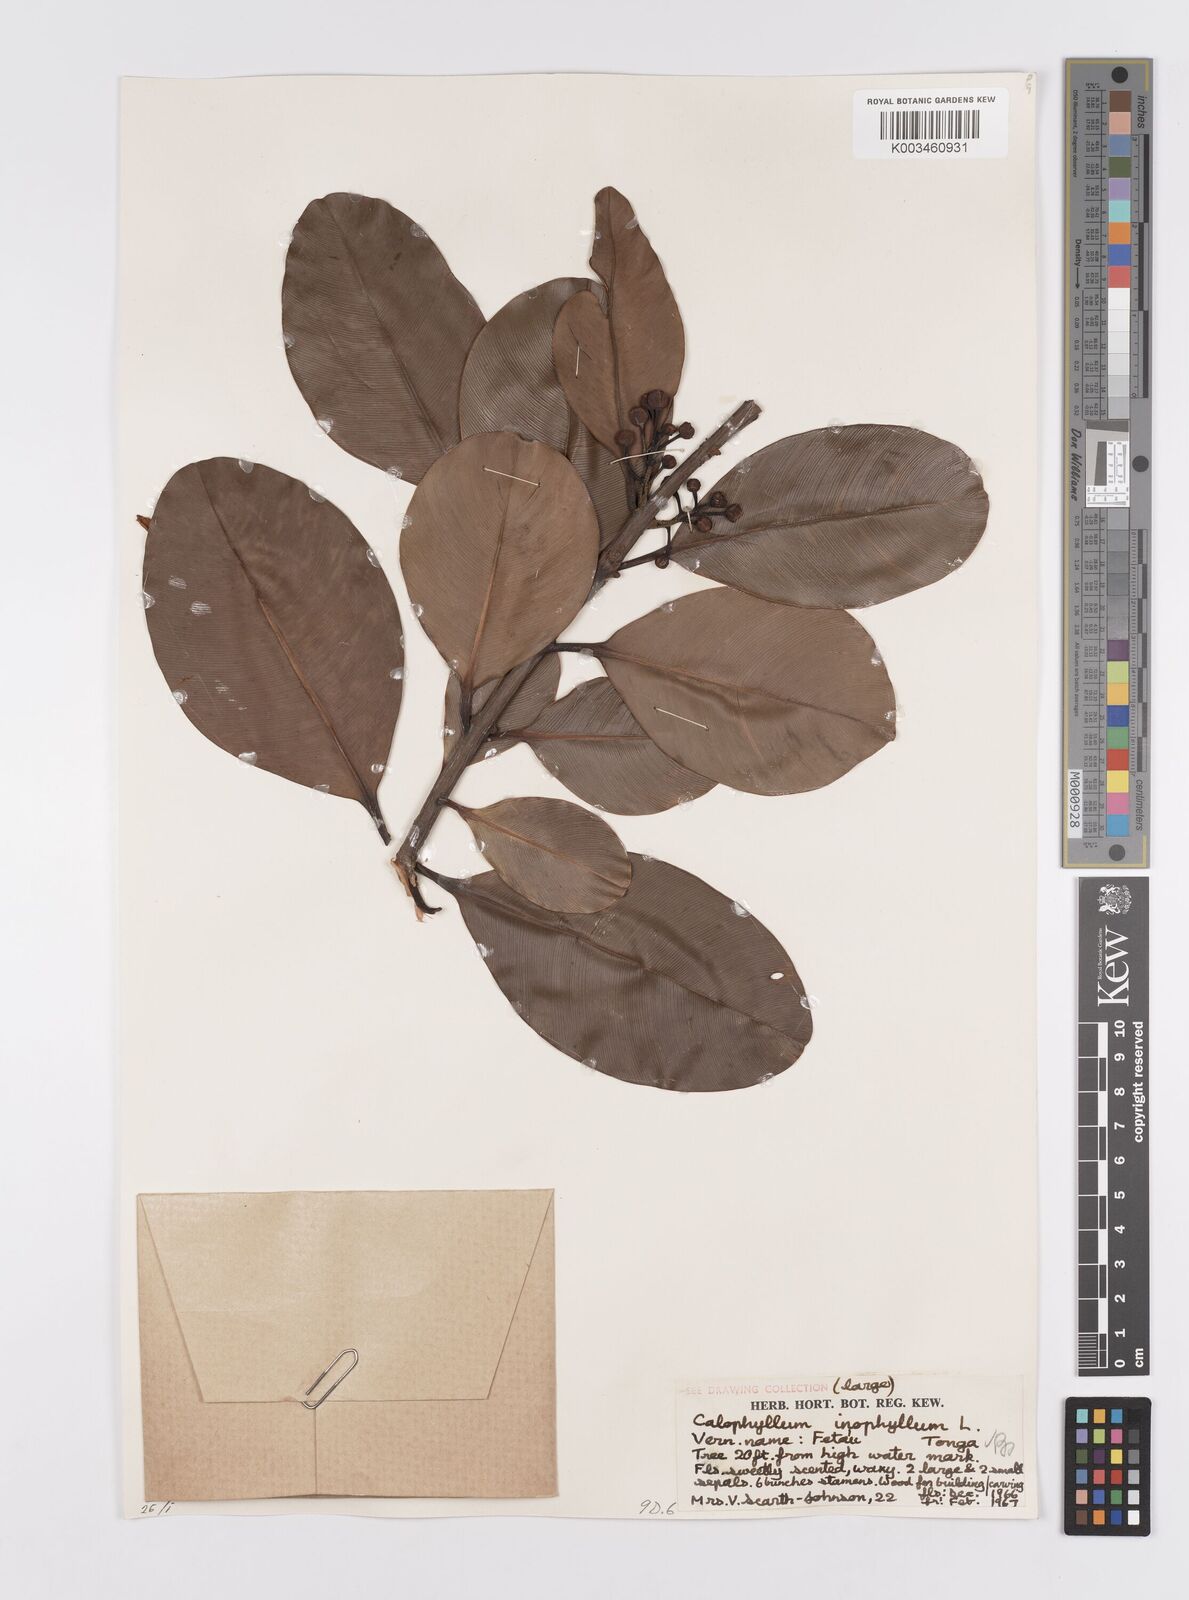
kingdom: Plantae
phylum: Tracheophyta
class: Magnoliopsida
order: Malpighiales
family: Calophyllaceae
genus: Calophyllum
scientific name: Calophyllum inophyllum
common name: Alexandrian laurel
